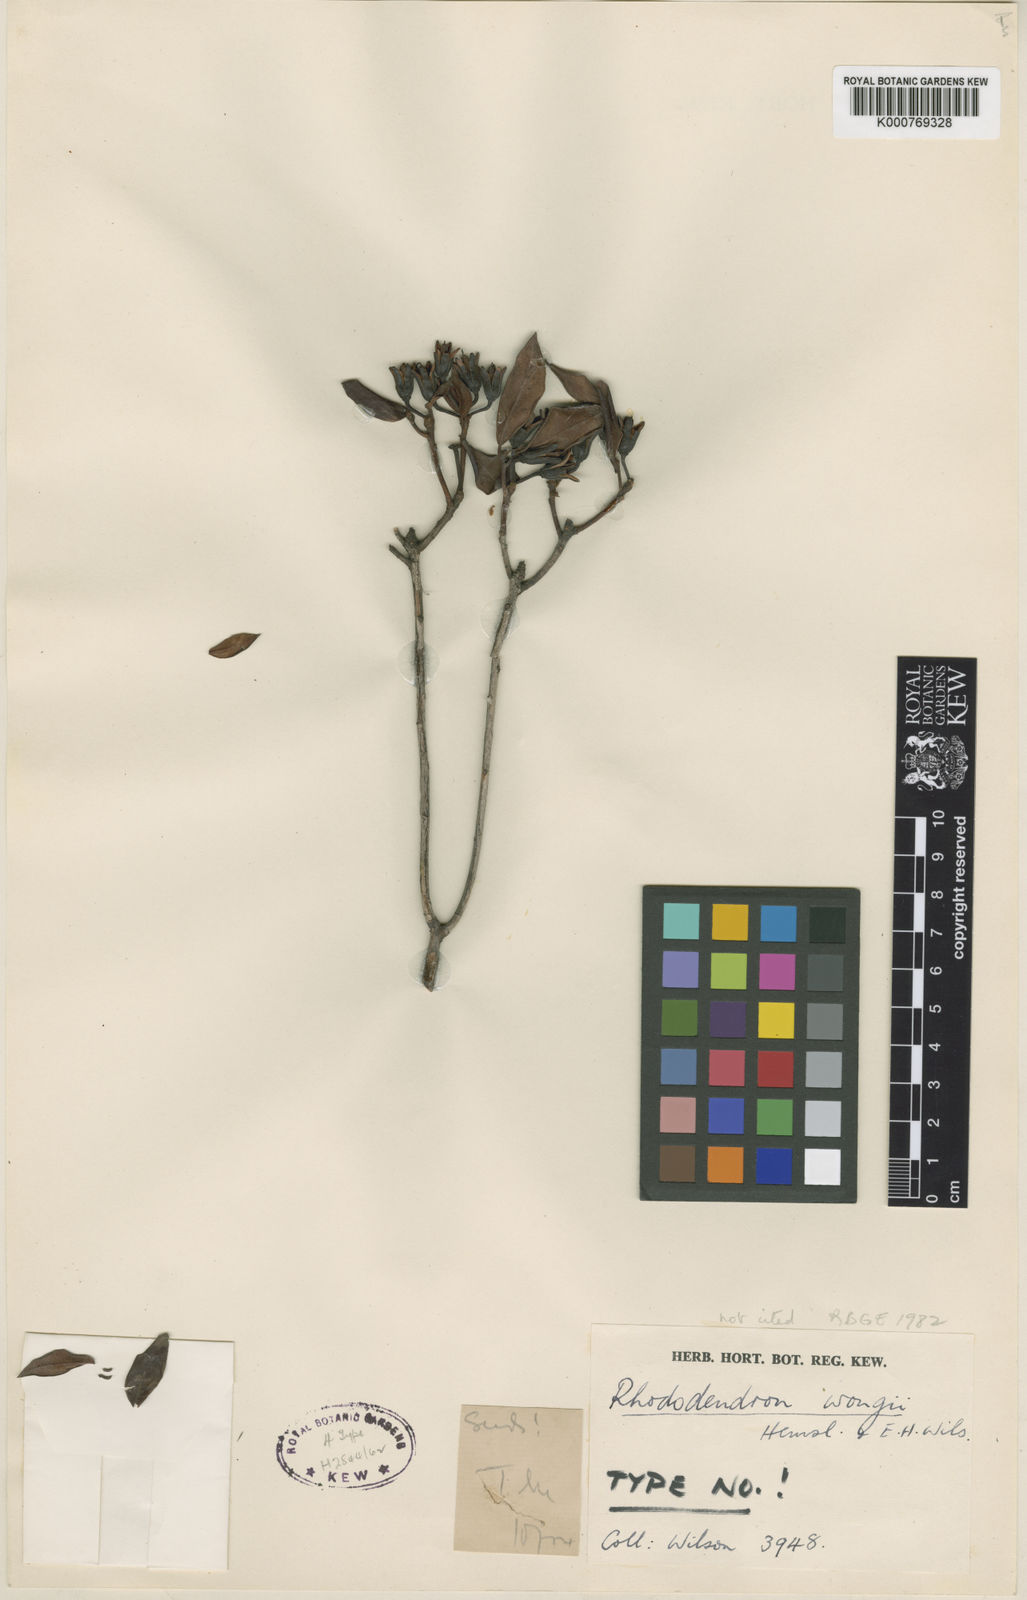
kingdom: Plantae
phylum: Tracheophyta
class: Magnoliopsida
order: Ericales
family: Ericaceae
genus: Rhododendron
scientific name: Rhododendron wongii
